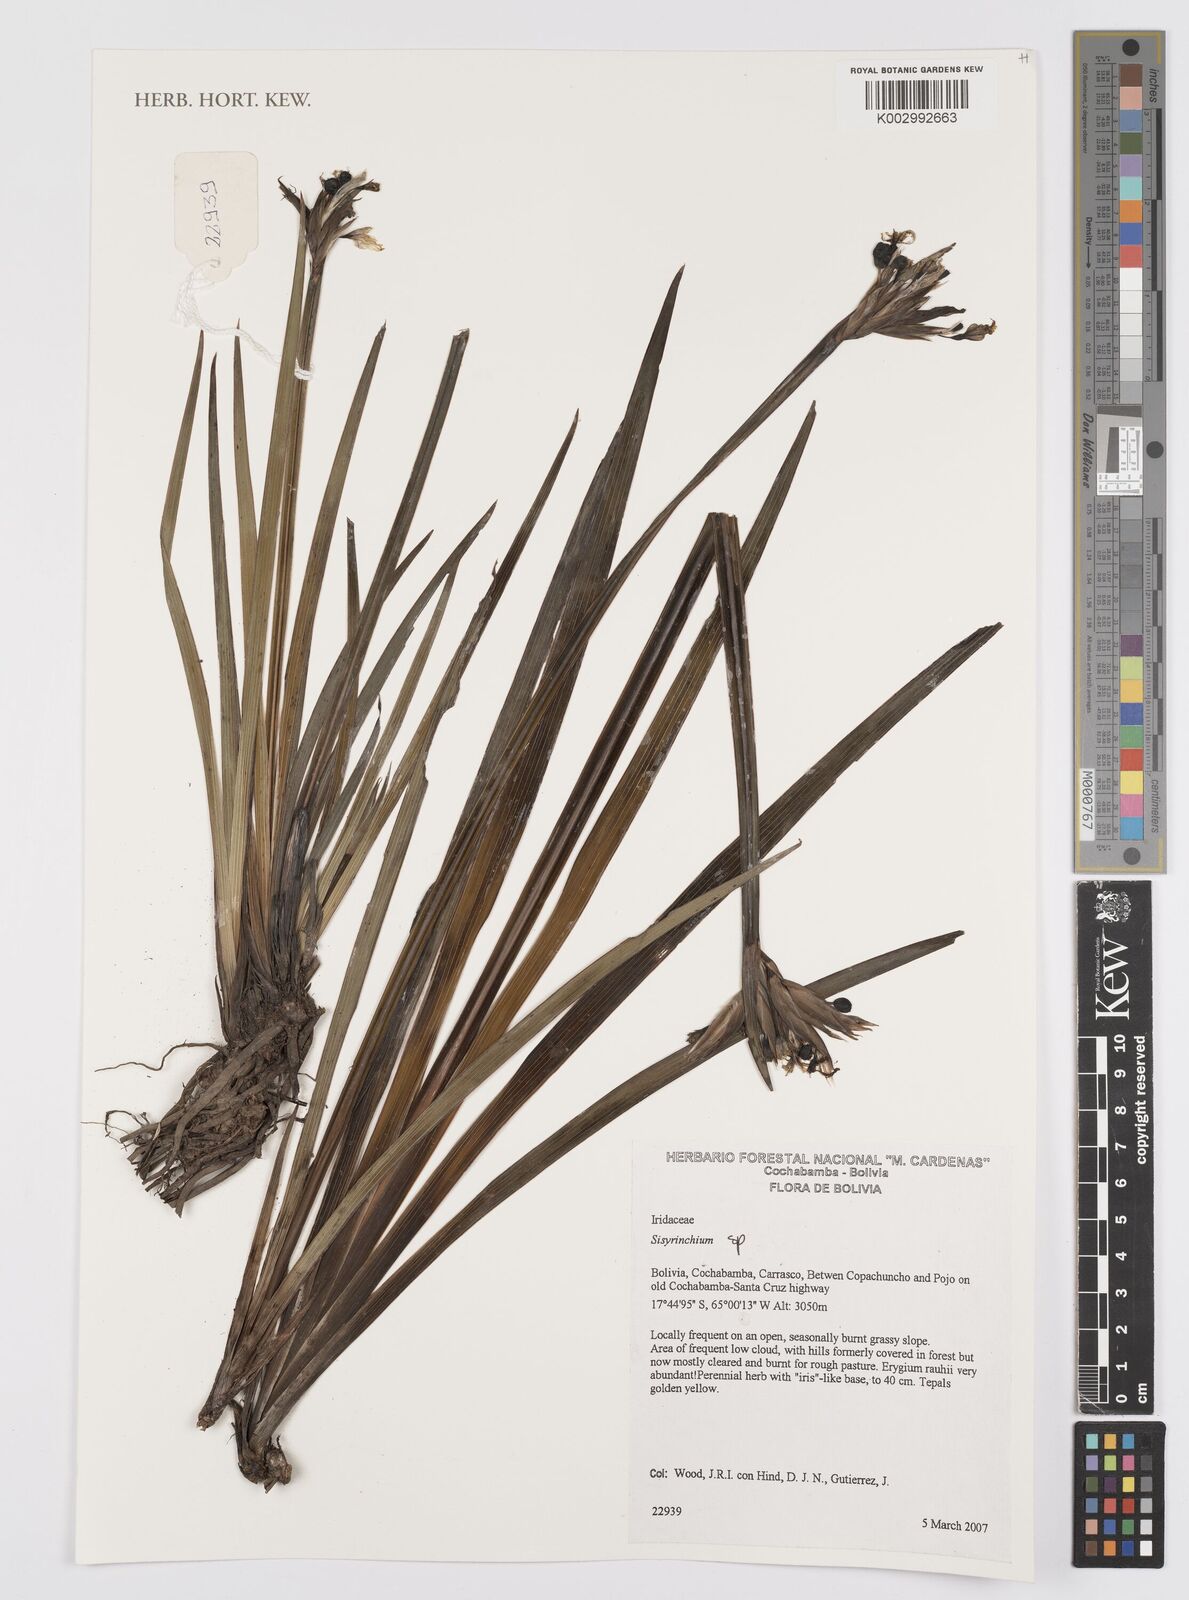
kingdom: Plantae
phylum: Tracheophyta
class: Liliopsida
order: Asparagales
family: Iridaceae
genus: Sisyrinchium
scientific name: Sisyrinchium
